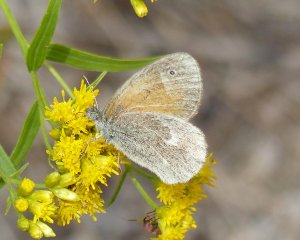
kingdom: Animalia
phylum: Arthropoda
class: Insecta
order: Lepidoptera
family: Nymphalidae
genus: Coenonympha
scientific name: Coenonympha tullia
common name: Large Heath
